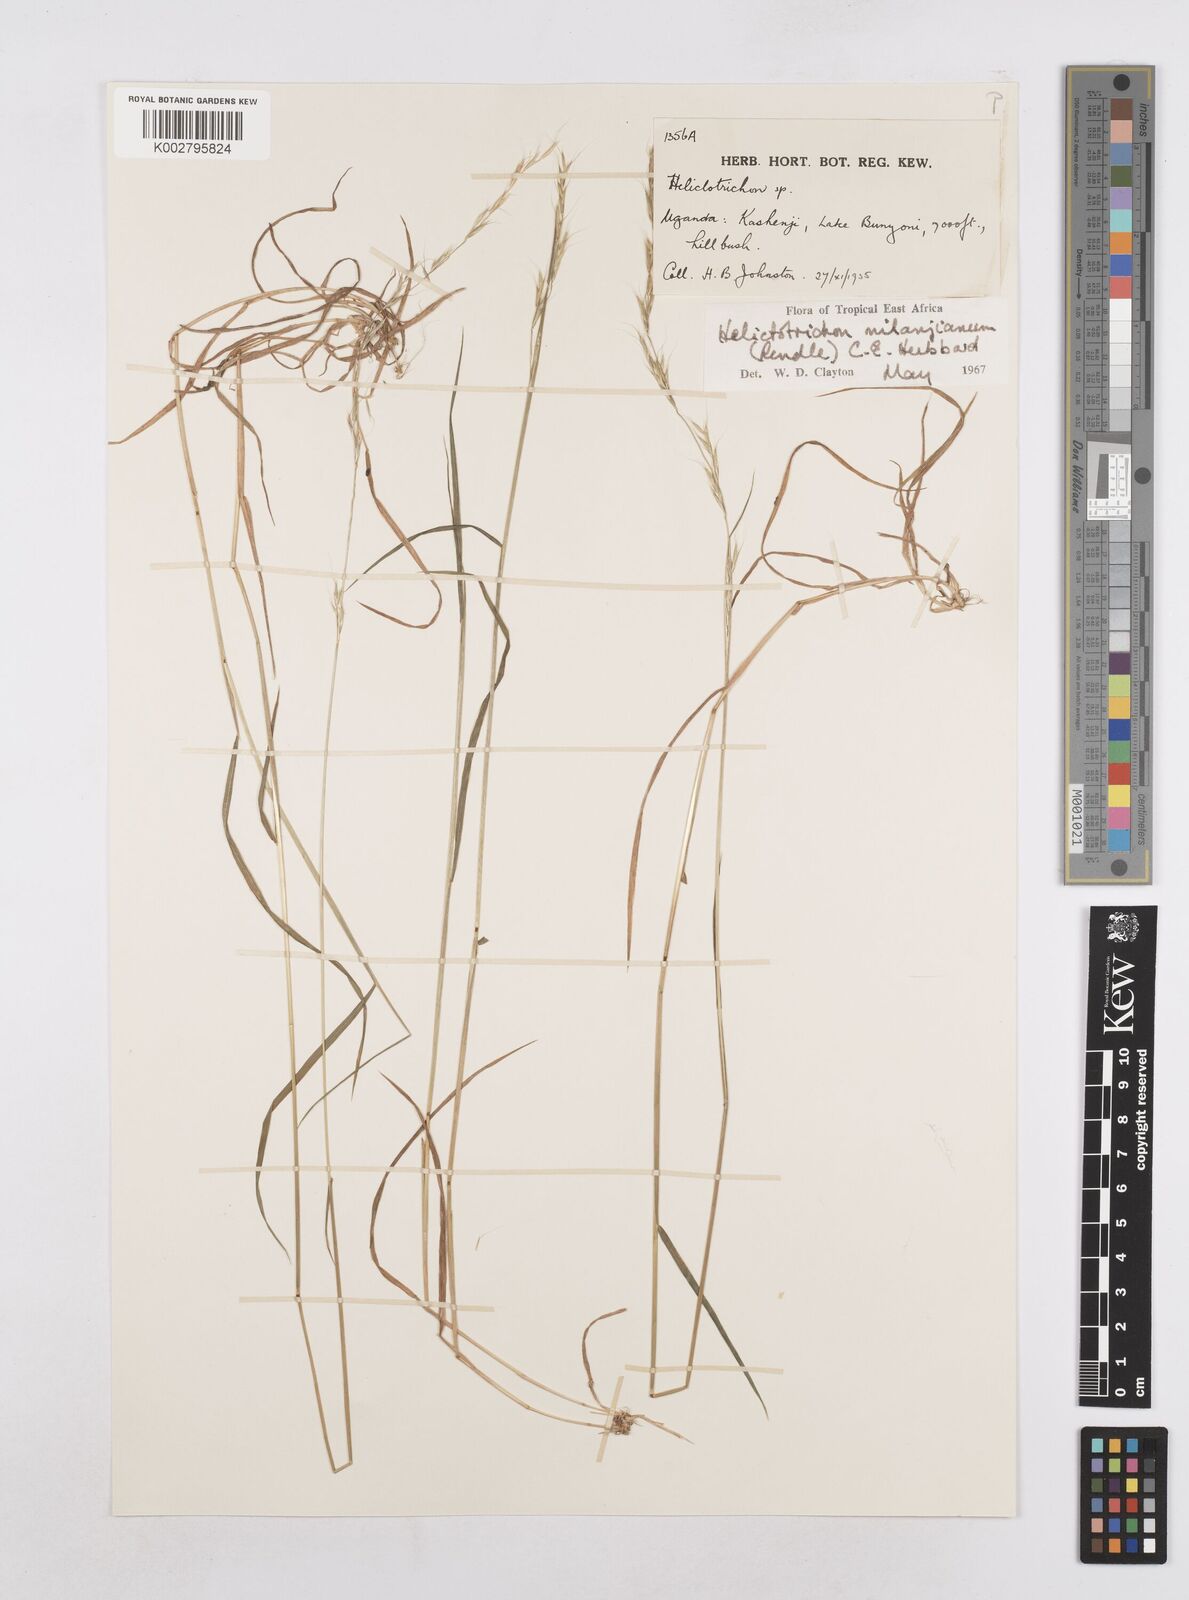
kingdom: Plantae
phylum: Tracheophyta
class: Liliopsida
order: Poales
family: Poaceae
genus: Trisetopsis
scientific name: Trisetopsis milanjiana
